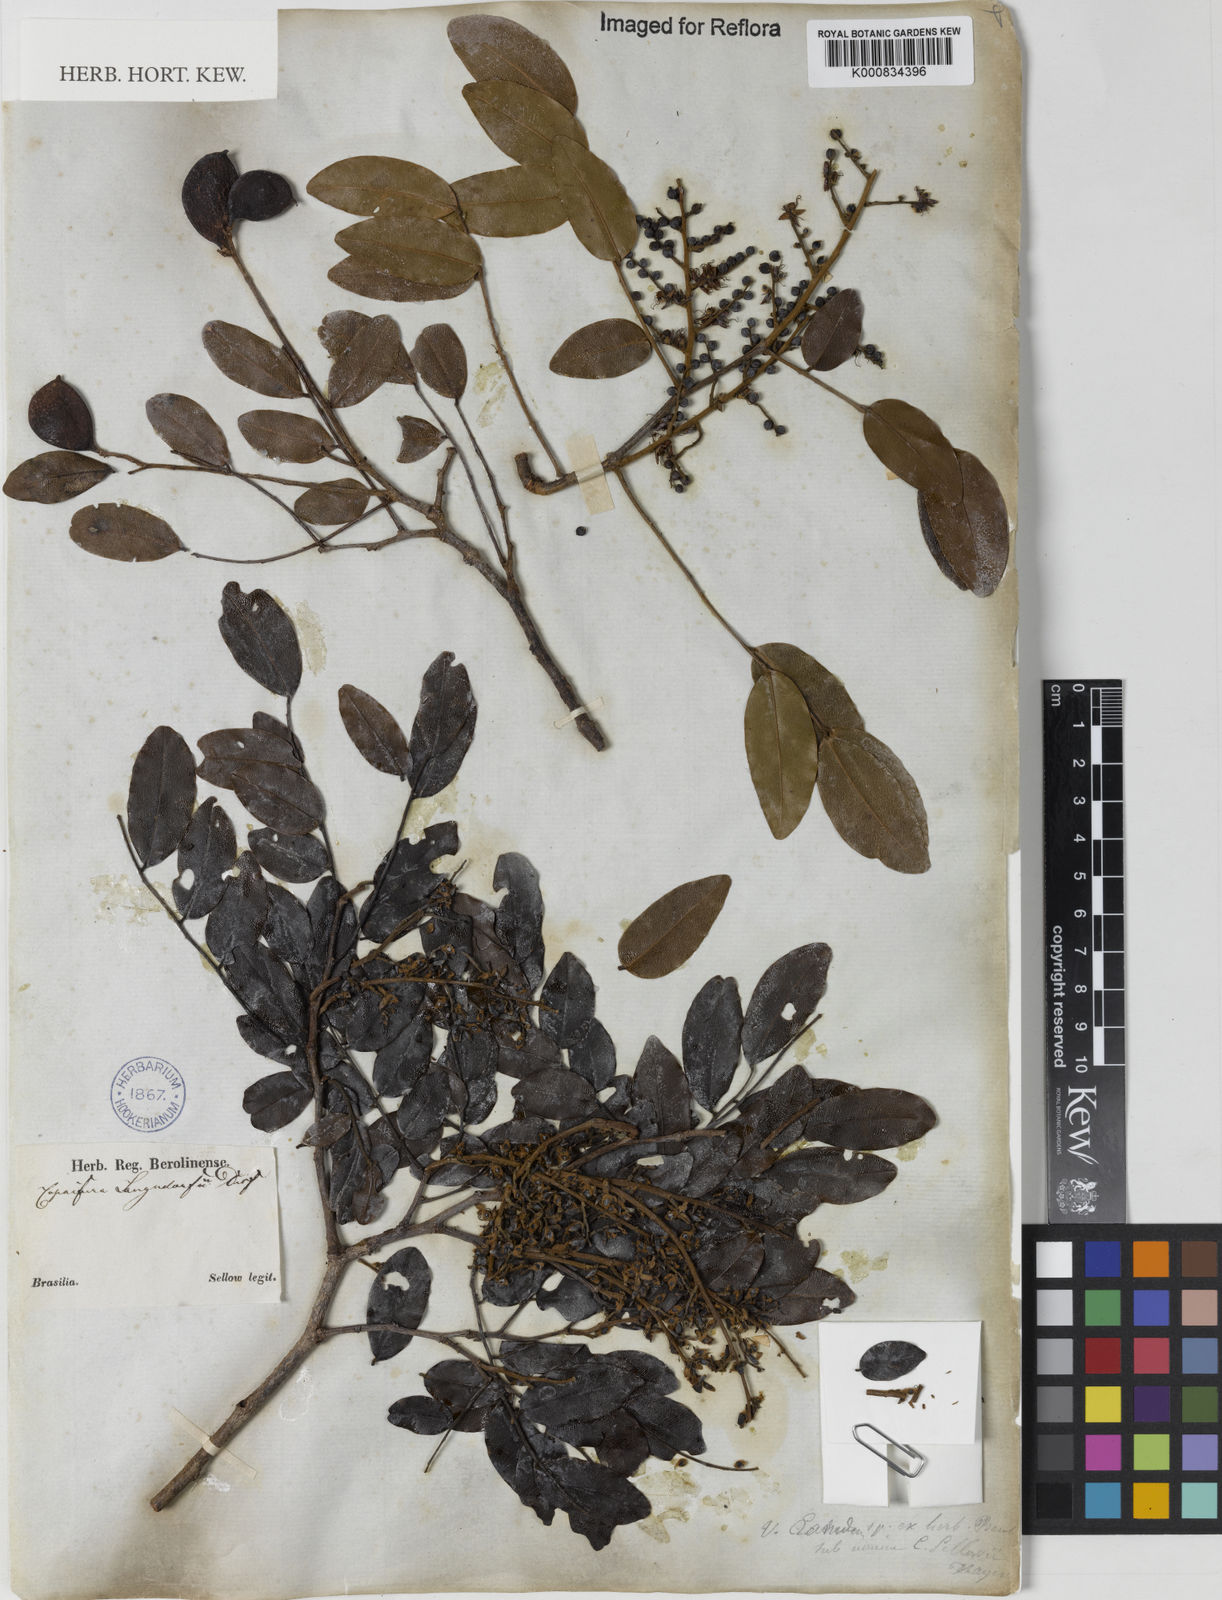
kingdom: Plantae
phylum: Tracheophyta
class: Magnoliopsida
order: Fabales
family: Fabaceae
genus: Copaifera
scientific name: Copaifera langsdorffii
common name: Brazilian diesel tree
